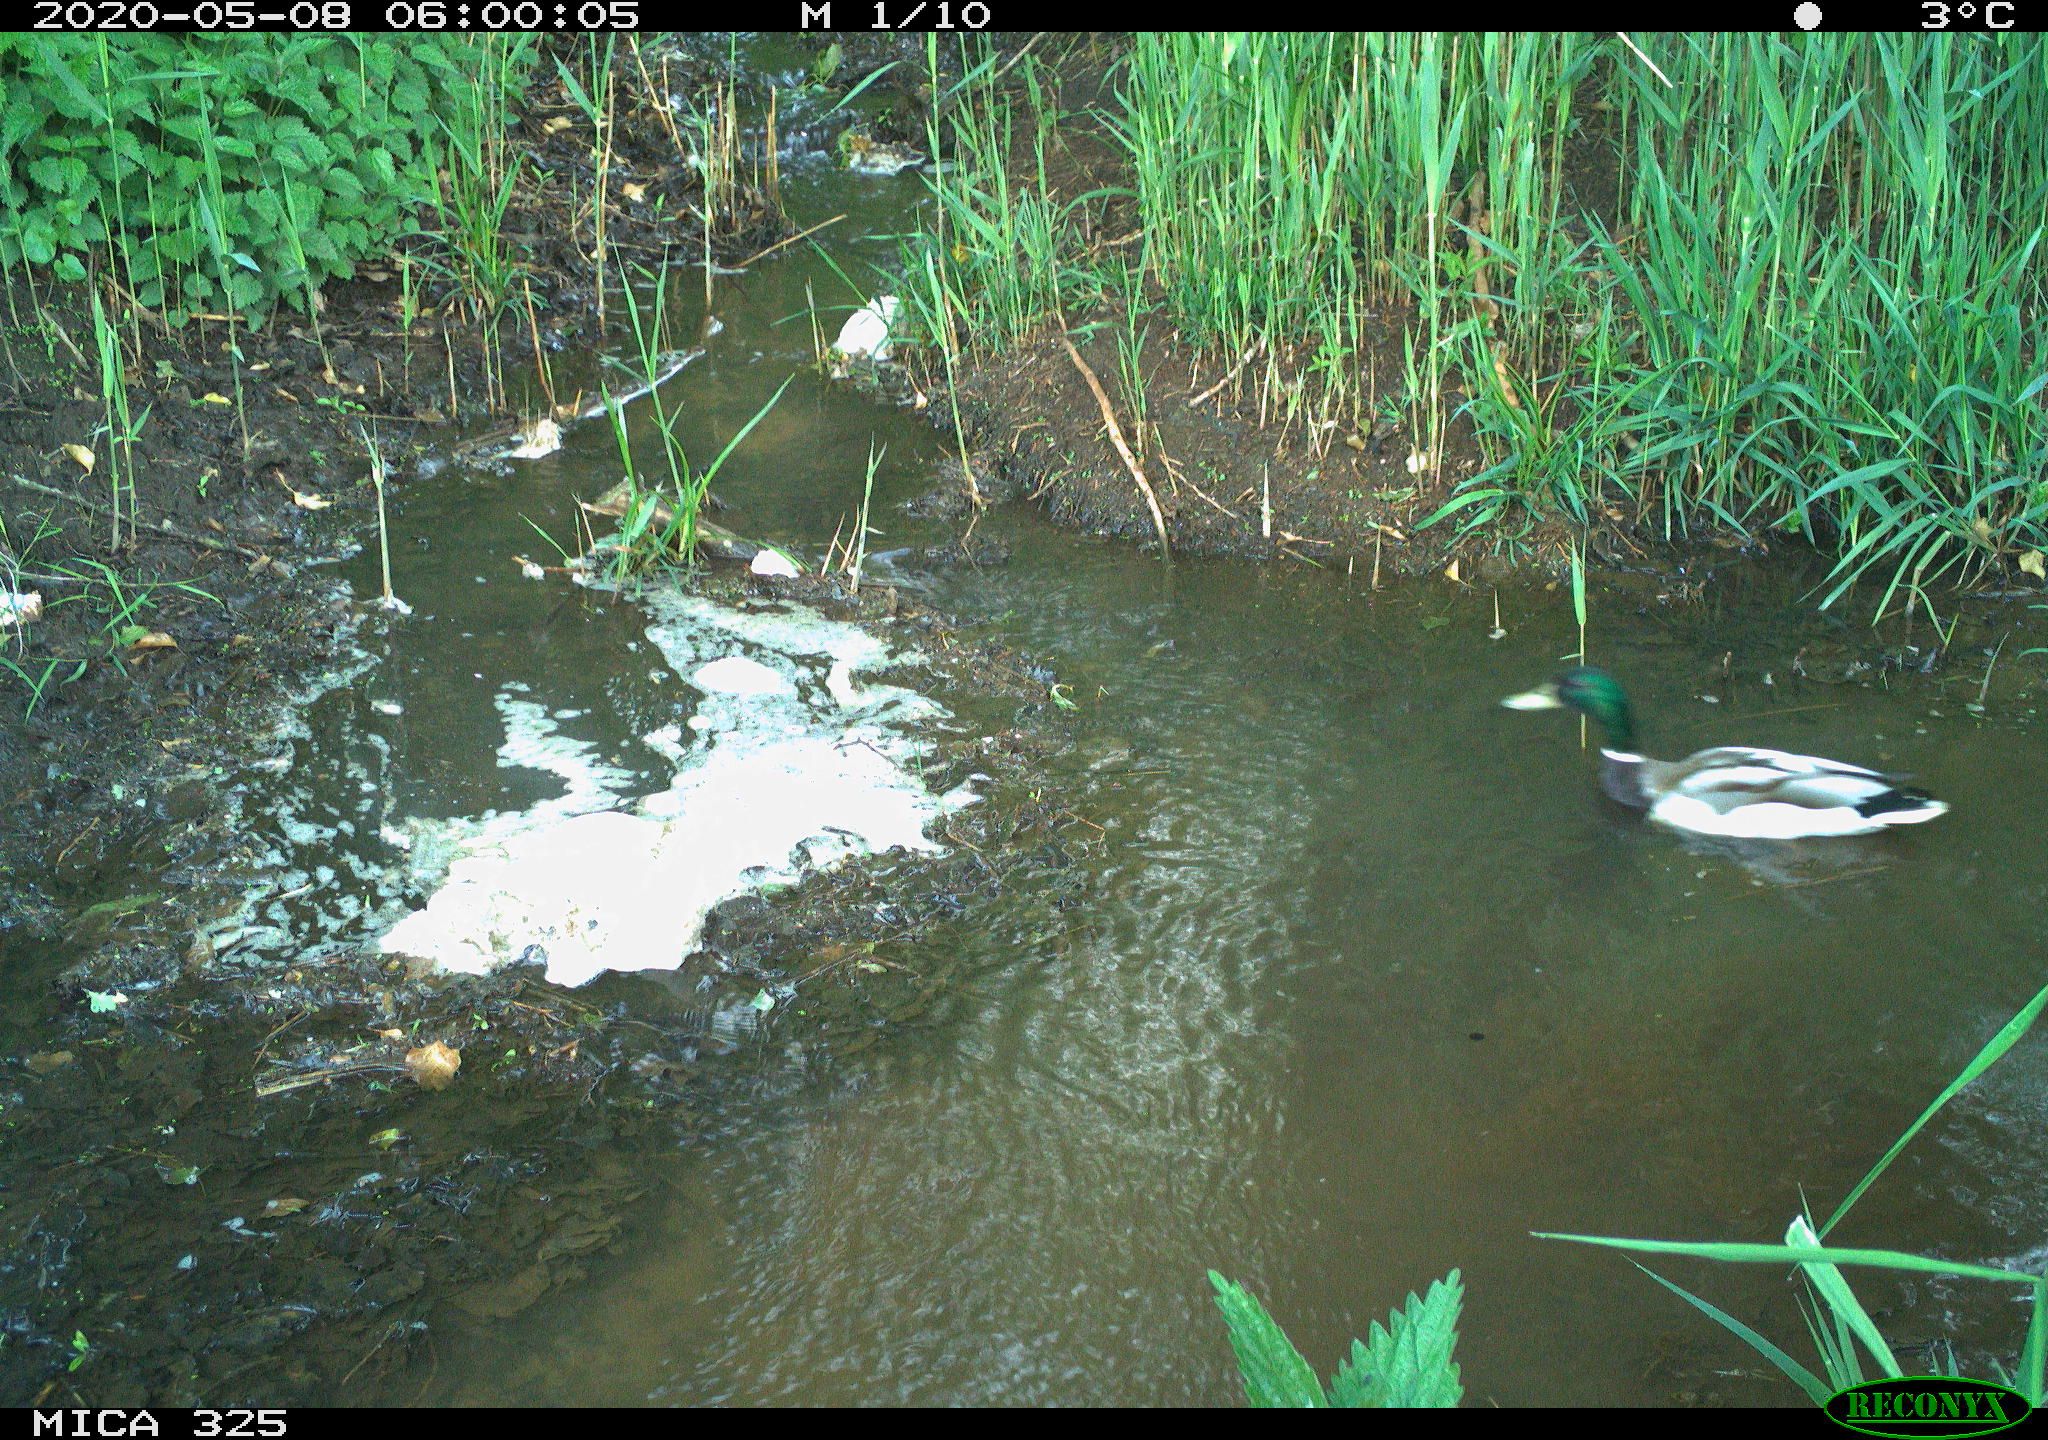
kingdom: Animalia
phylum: Chordata
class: Aves
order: Anseriformes
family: Anatidae
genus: Anas
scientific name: Anas platyrhynchos
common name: Mallard
